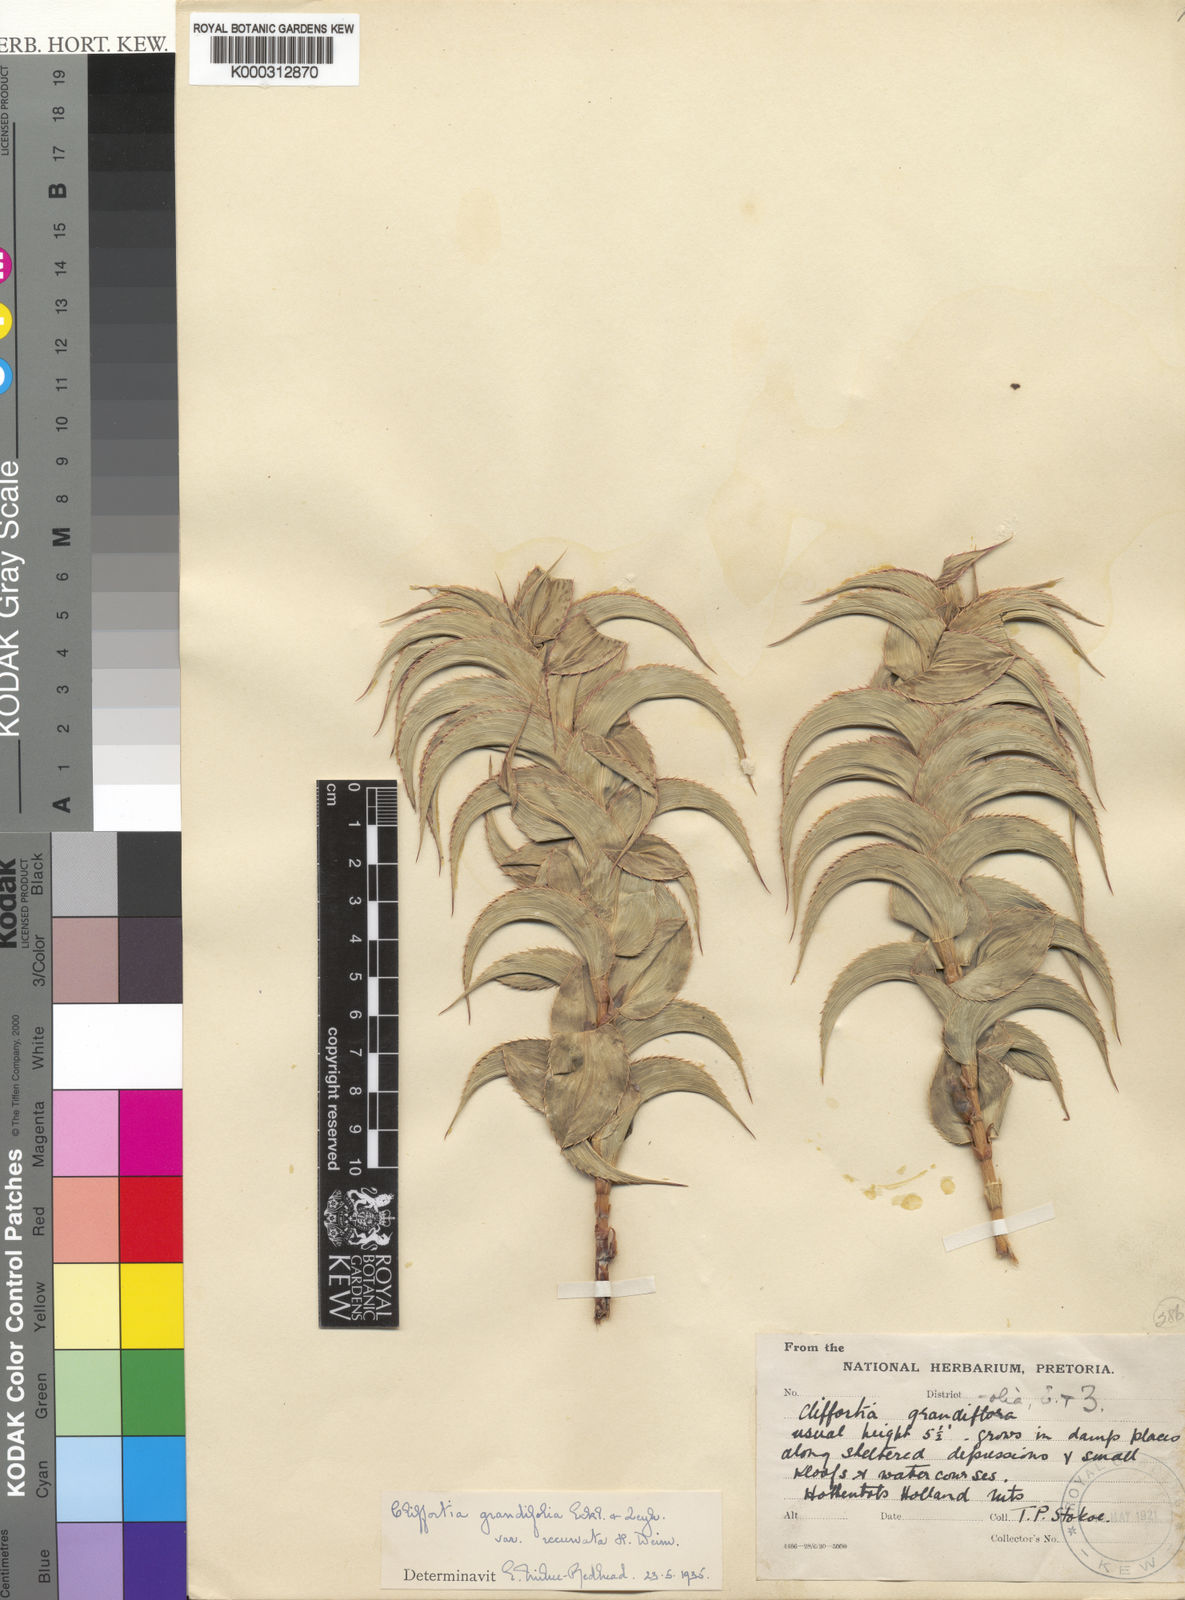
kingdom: Plantae
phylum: Tracheophyta
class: Magnoliopsida
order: Rosales
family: Rosaceae
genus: Cliffortia
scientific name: Cliffortia recurvata
